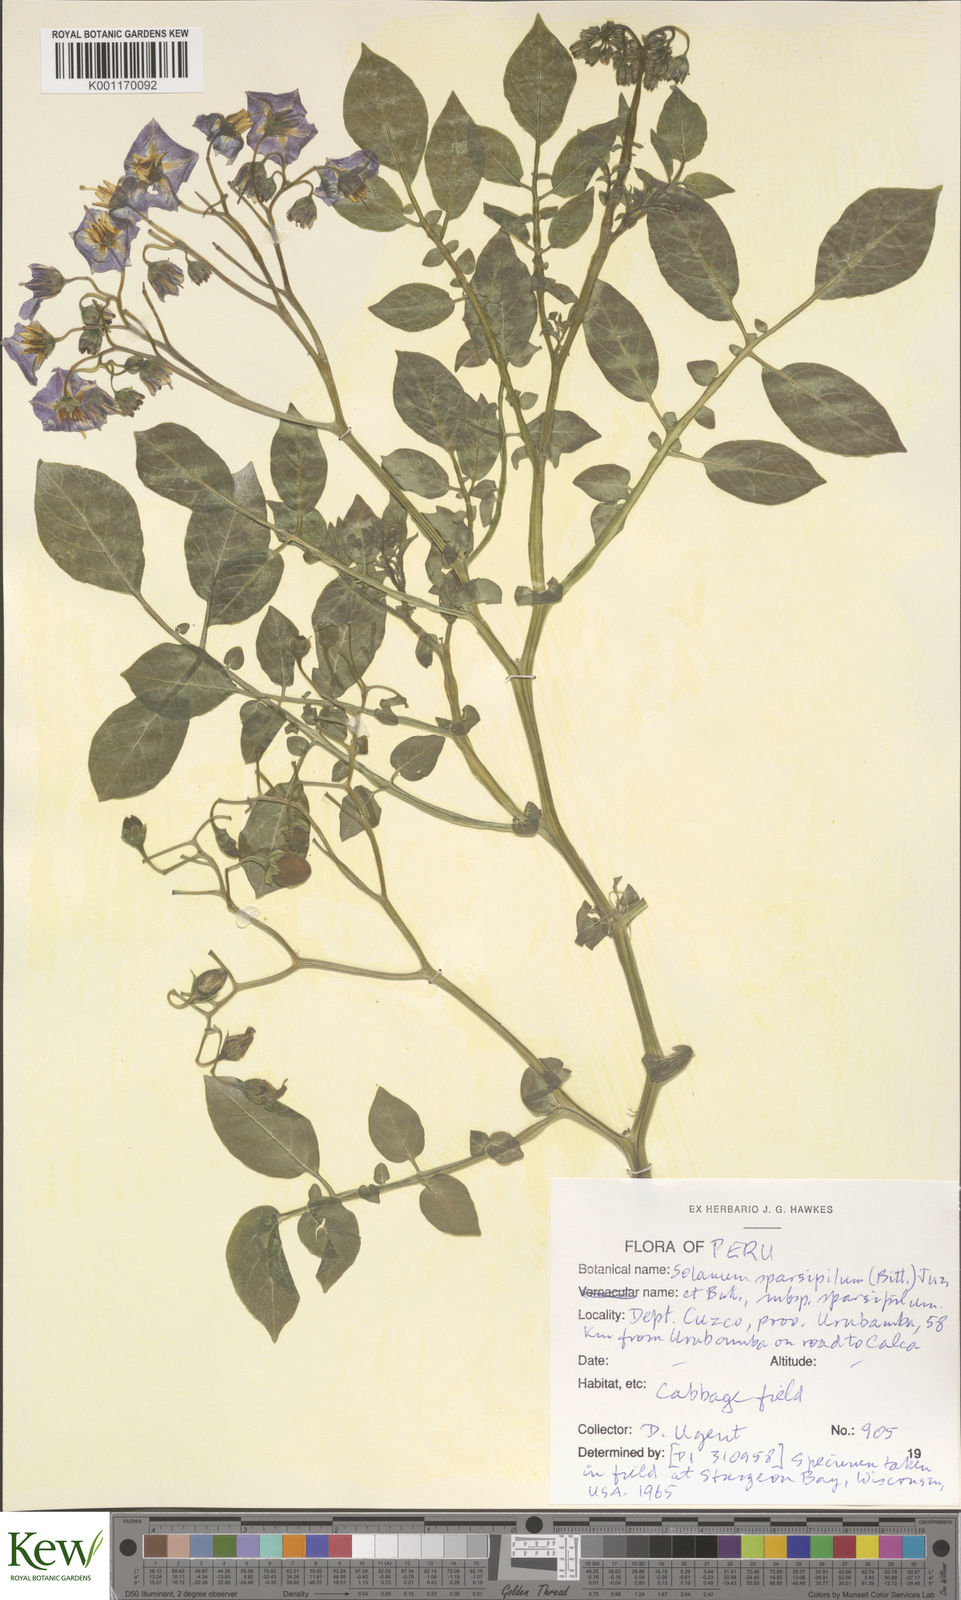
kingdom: Plantae
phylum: Tracheophyta
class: Magnoliopsida
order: Solanales
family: Solanaceae
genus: Solanum
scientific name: Solanum brevicaule
